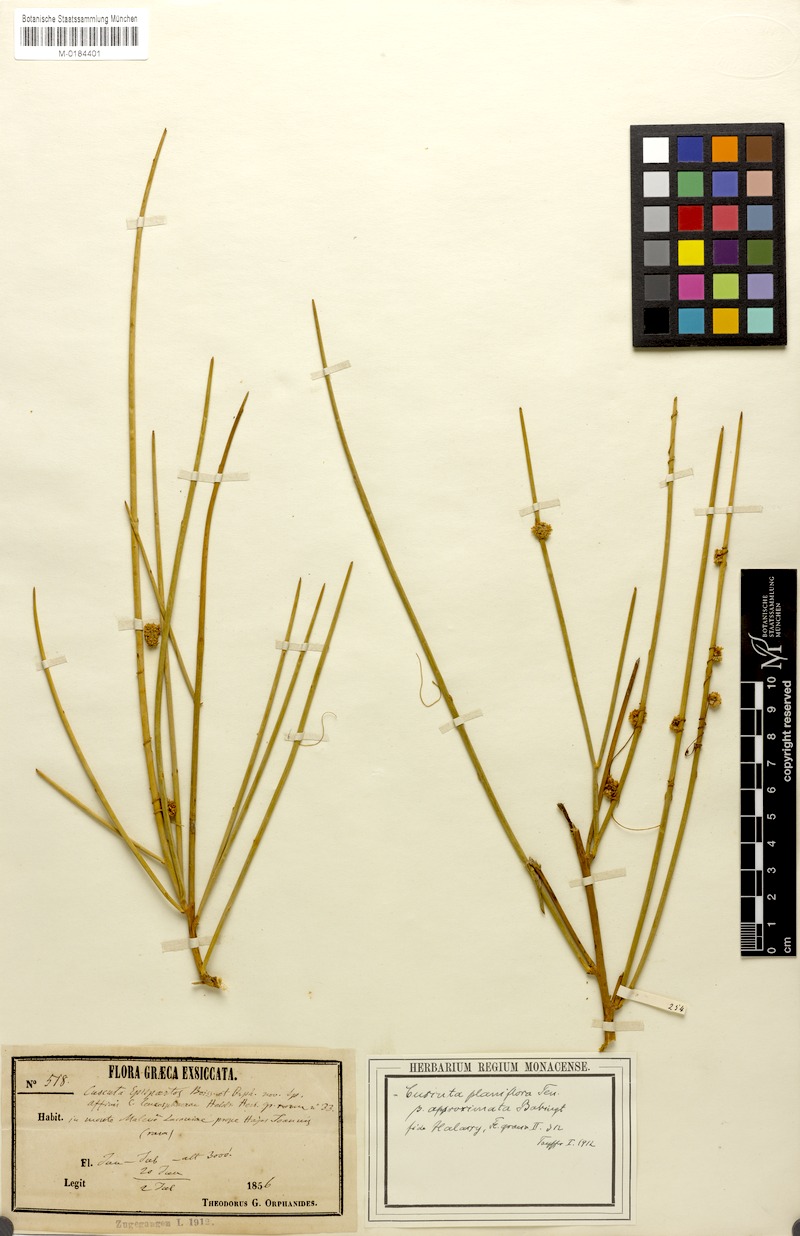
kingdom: Plantae
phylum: Tracheophyta
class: Magnoliopsida
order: Solanales
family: Convolvulaceae
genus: Cuscuta
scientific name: Cuscuta planiflora
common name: Small-seed alfalfa dodder
